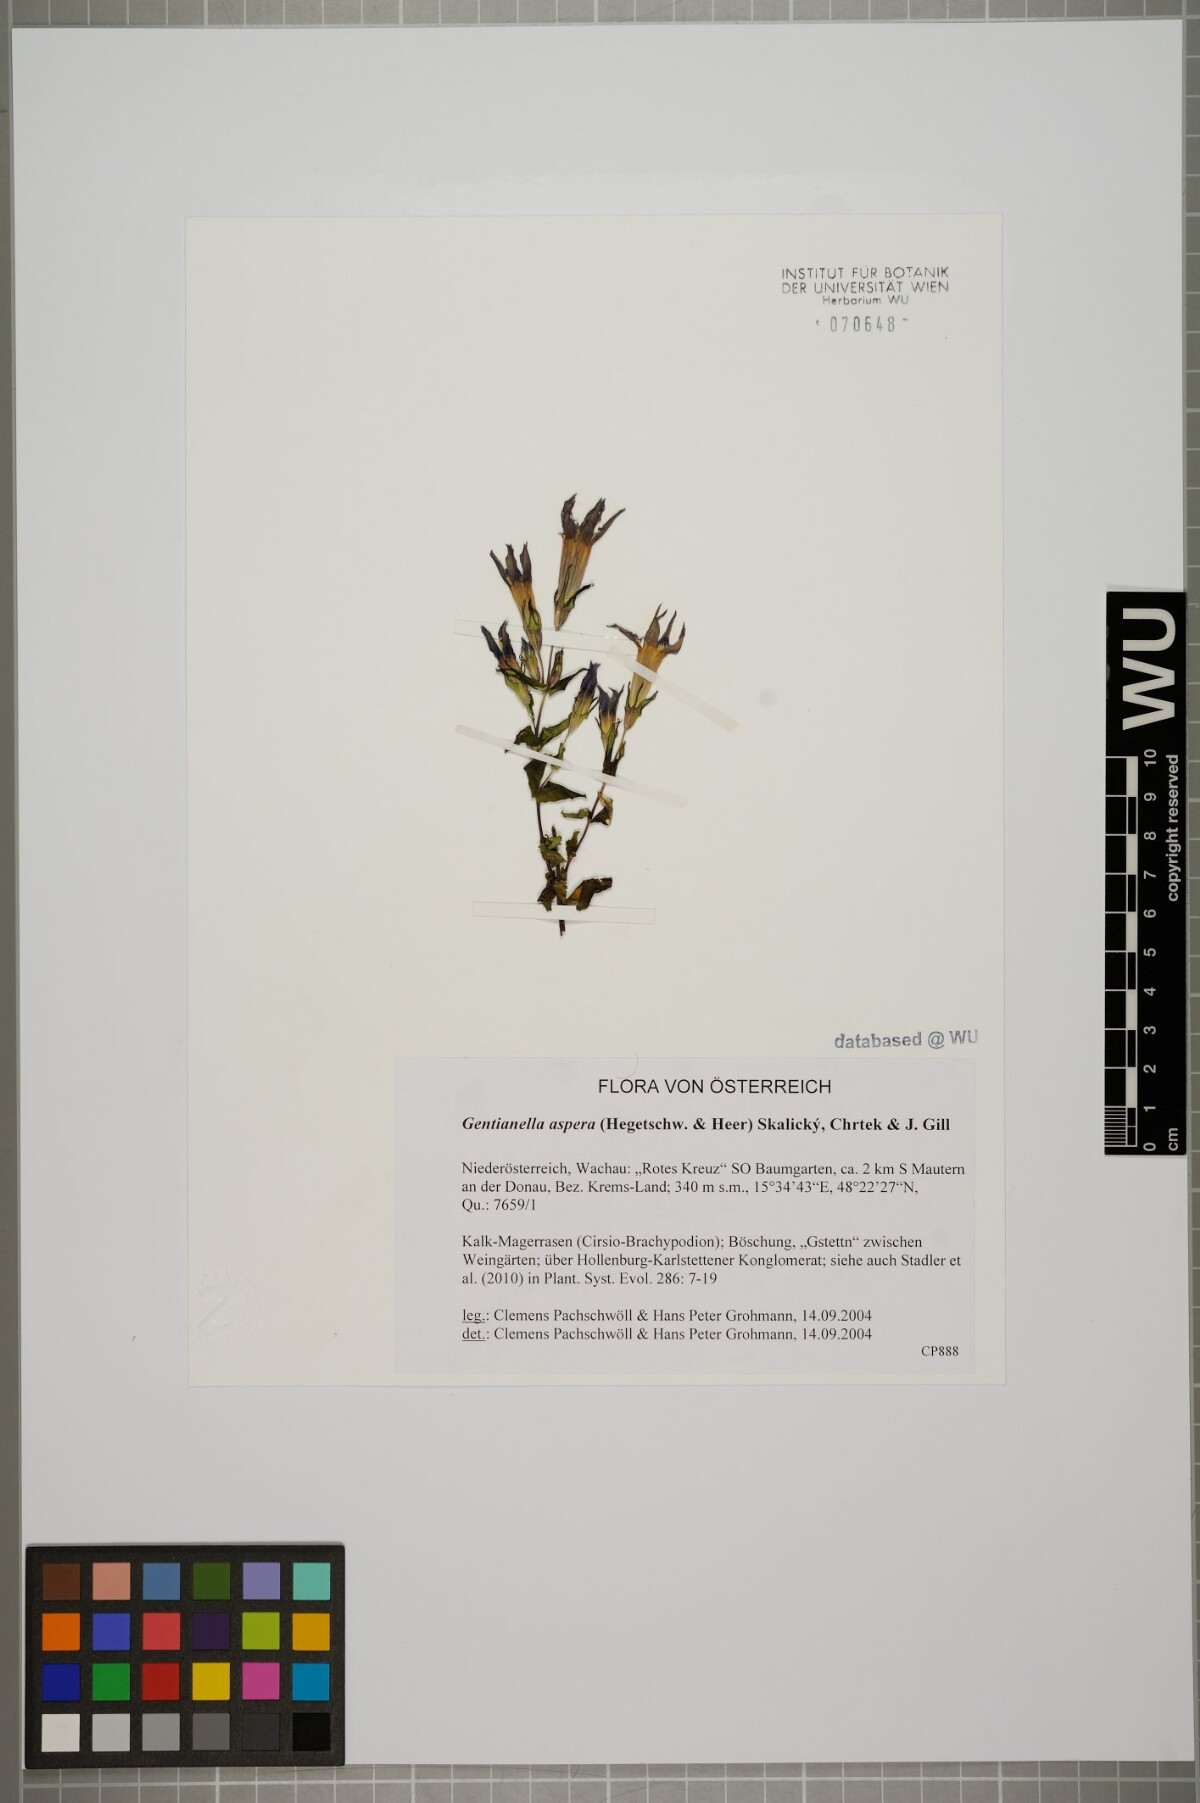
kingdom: Plantae
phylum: Tracheophyta
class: Magnoliopsida
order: Gentianales
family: Gentianaceae
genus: Gentianella
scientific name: Gentianella obtusifolia
